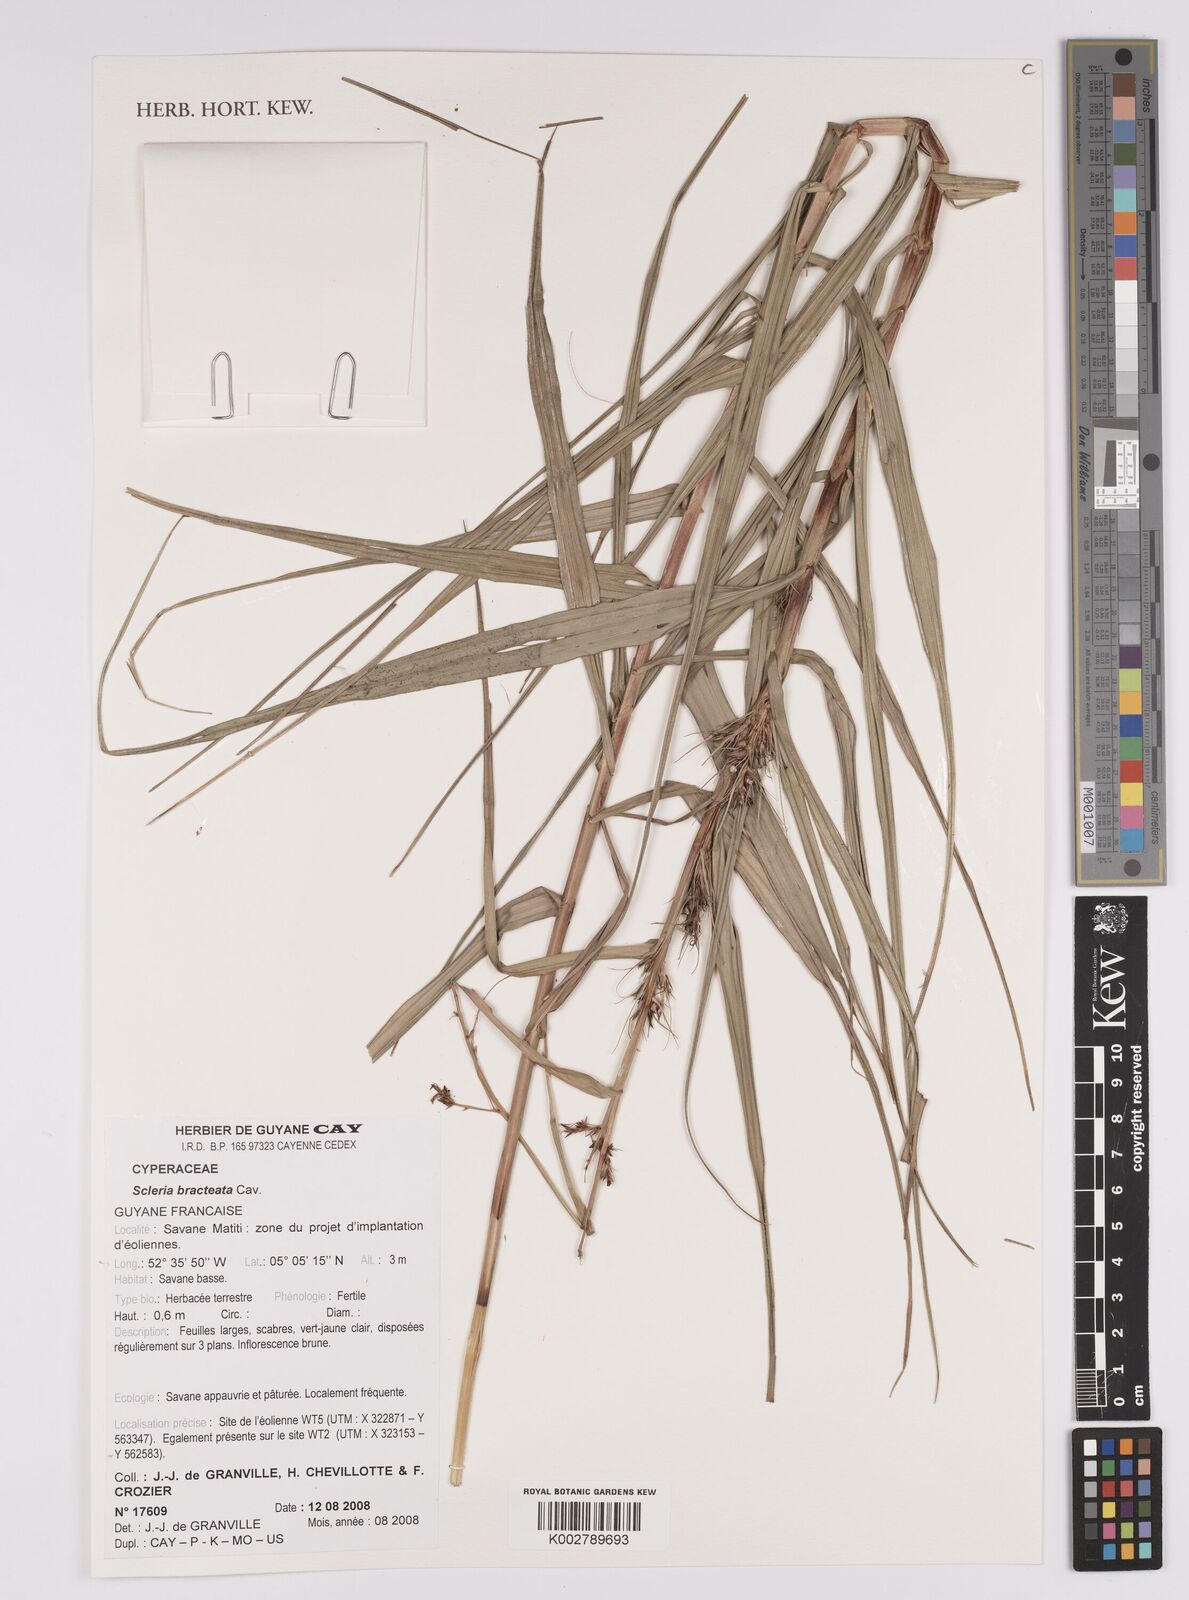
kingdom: Plantae
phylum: Tracheophyta
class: Liliopsida
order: Poales
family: Cyperaceae
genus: Scleria
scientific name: Scleria bracteata
